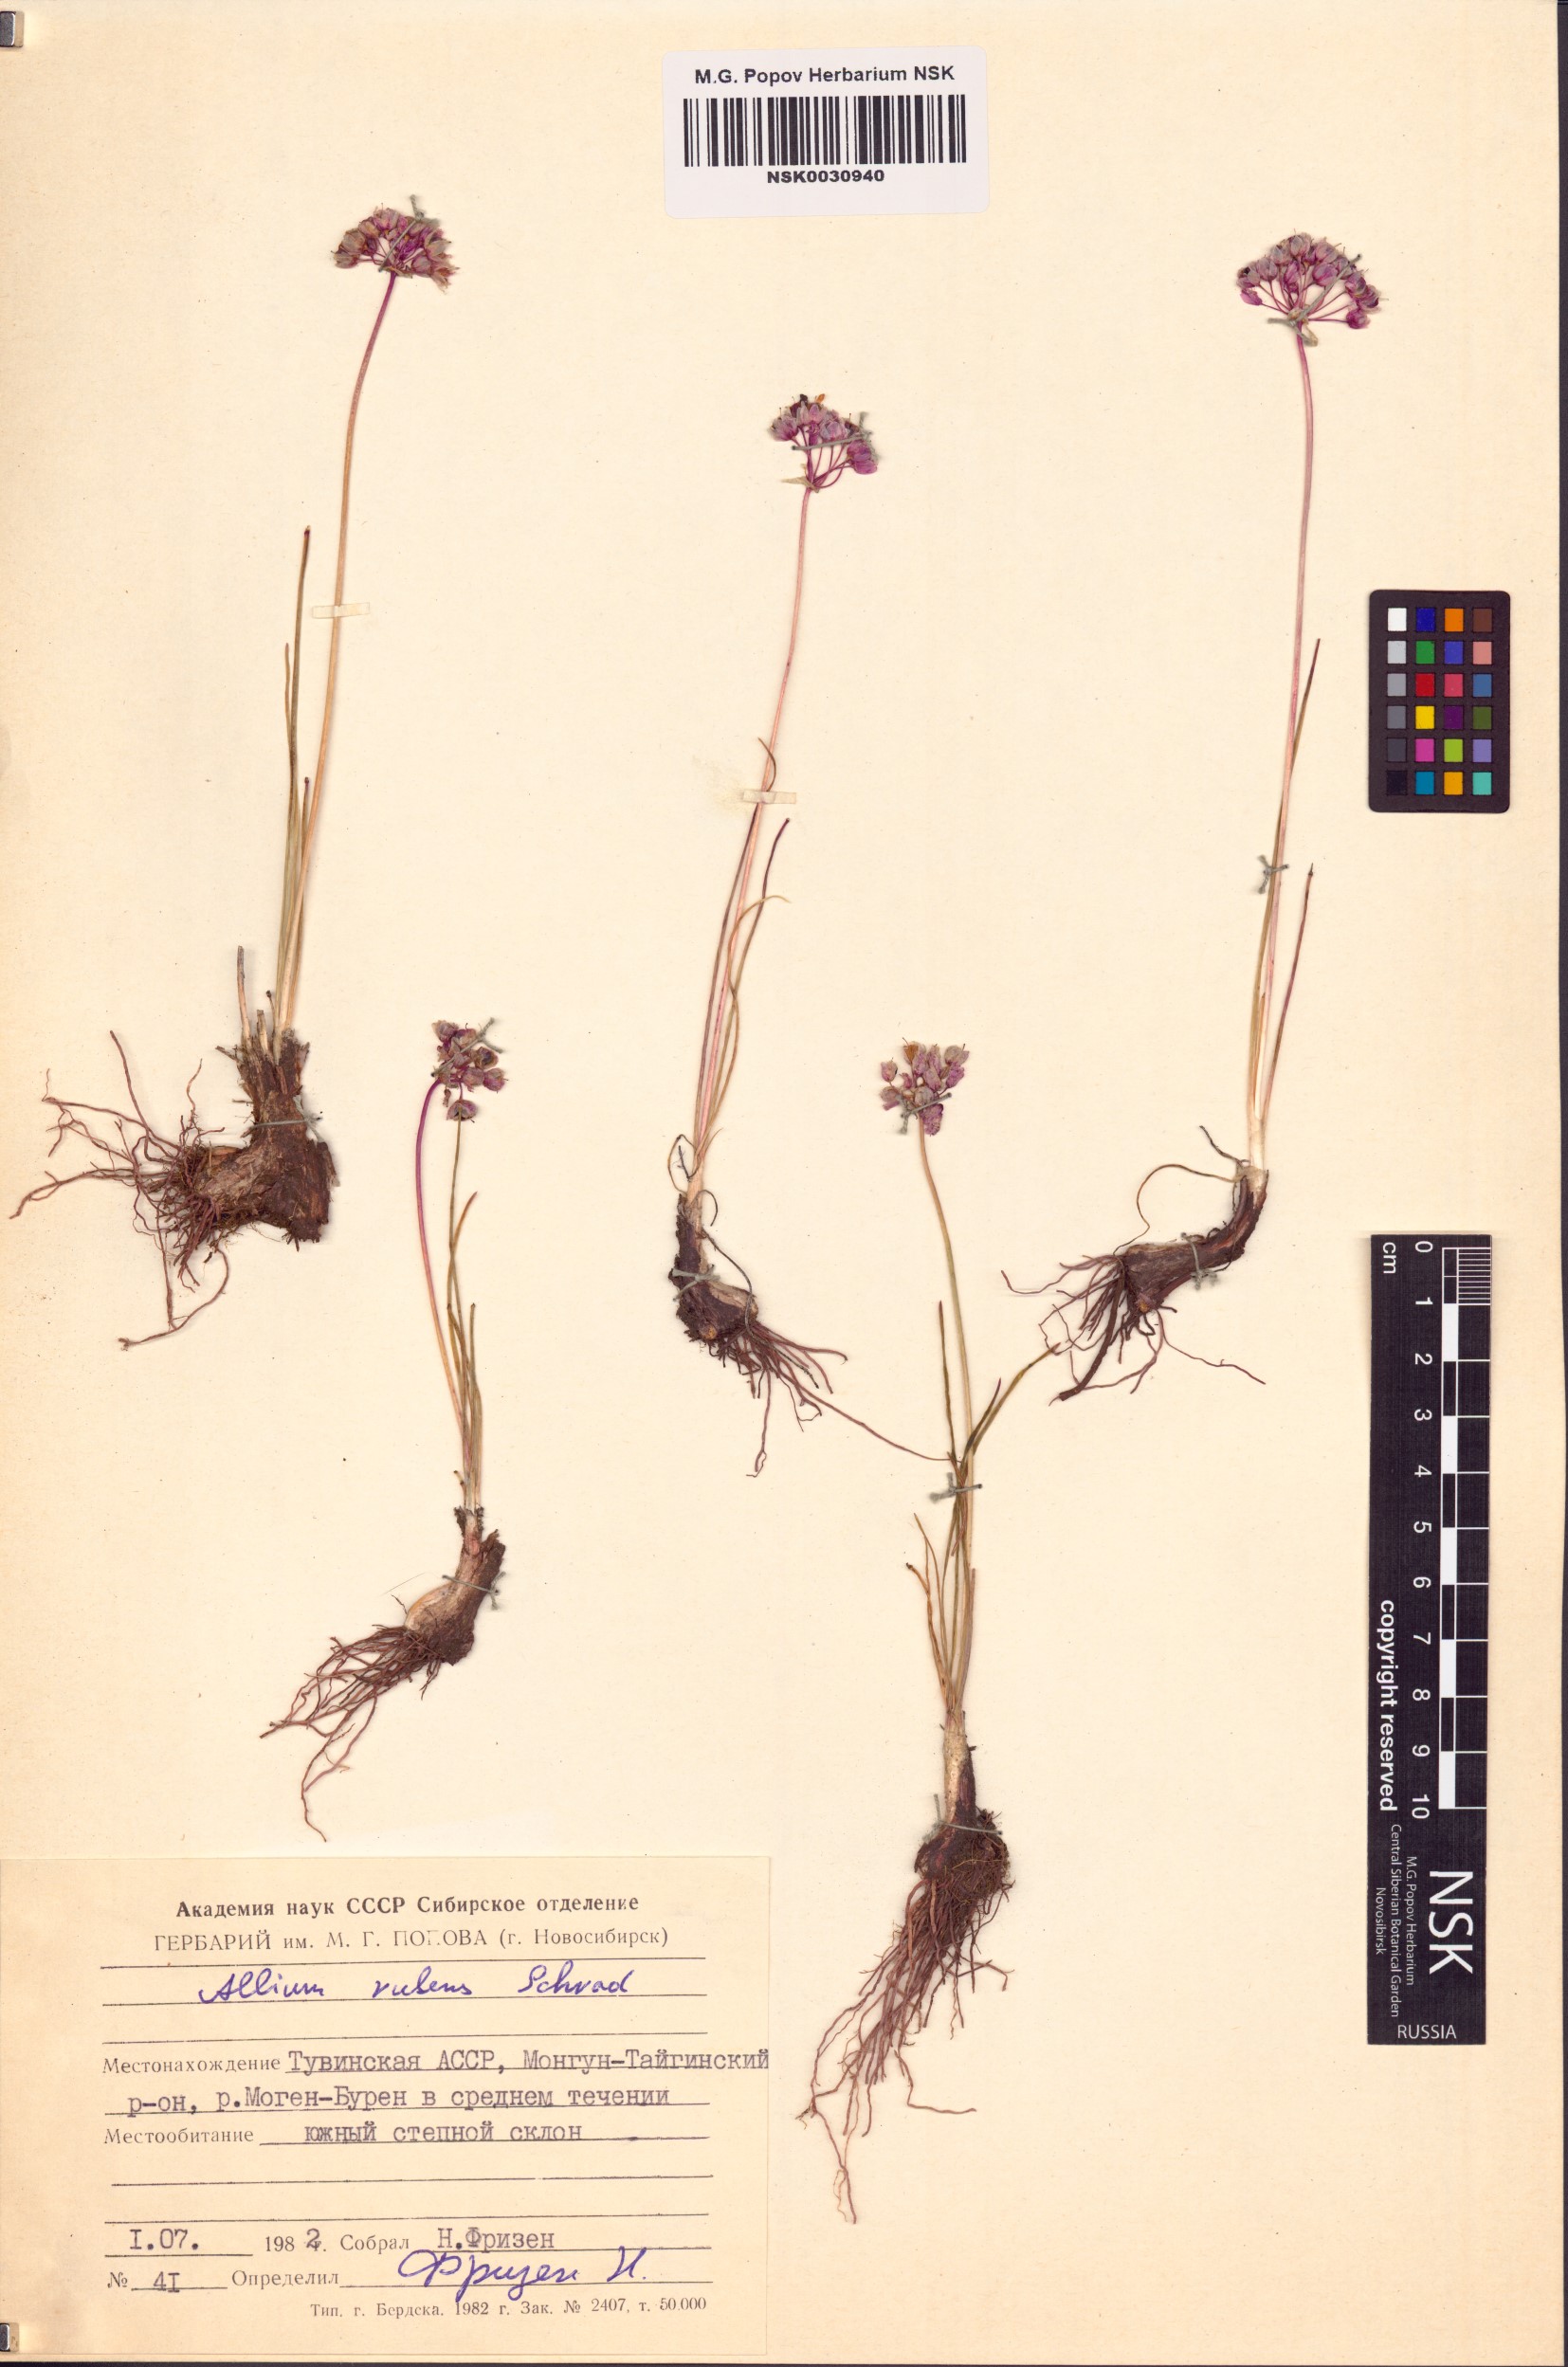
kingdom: Plantae
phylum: Tracheophyta
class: Liliopsida
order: Asparagales
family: Amaryllidaceae
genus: Allium
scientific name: Allium rubens
